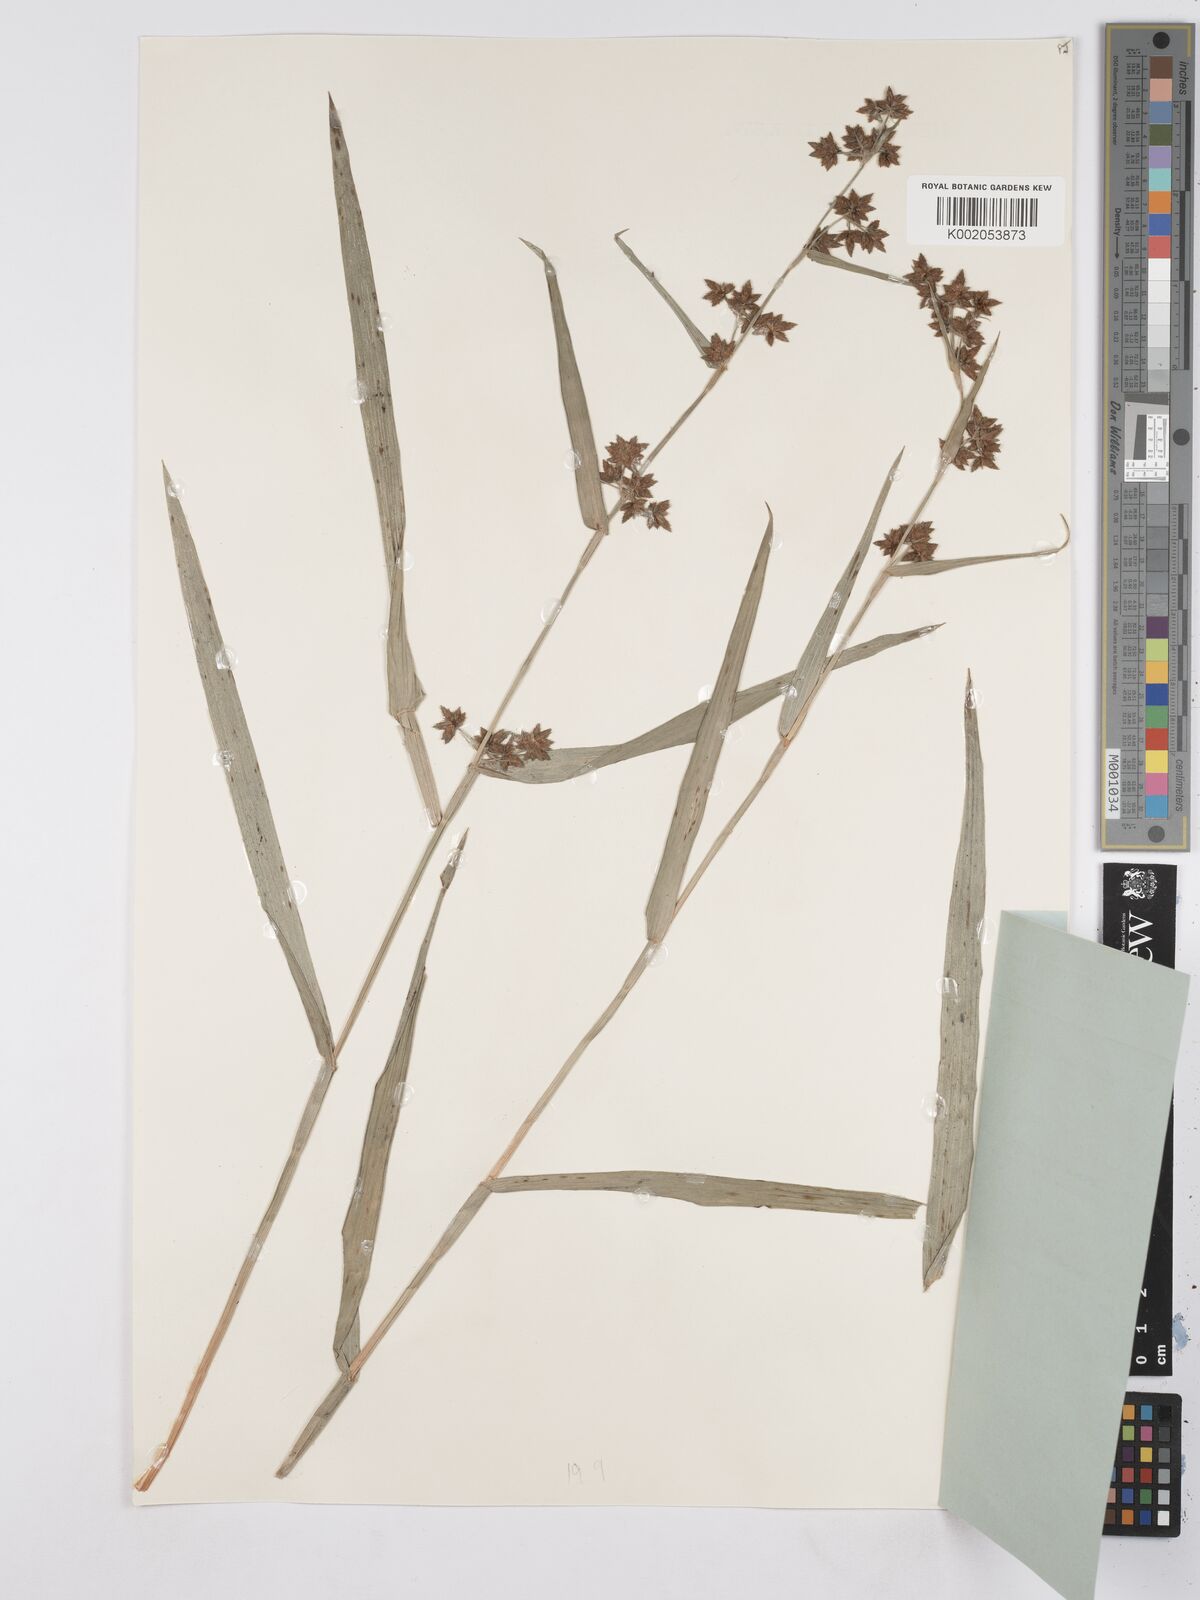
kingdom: Plantae
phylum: Tracheophyta
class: Liliopsida
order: Poales
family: Cyperaceae
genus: Fuirena
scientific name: Fuirena umbellata
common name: Yefen
